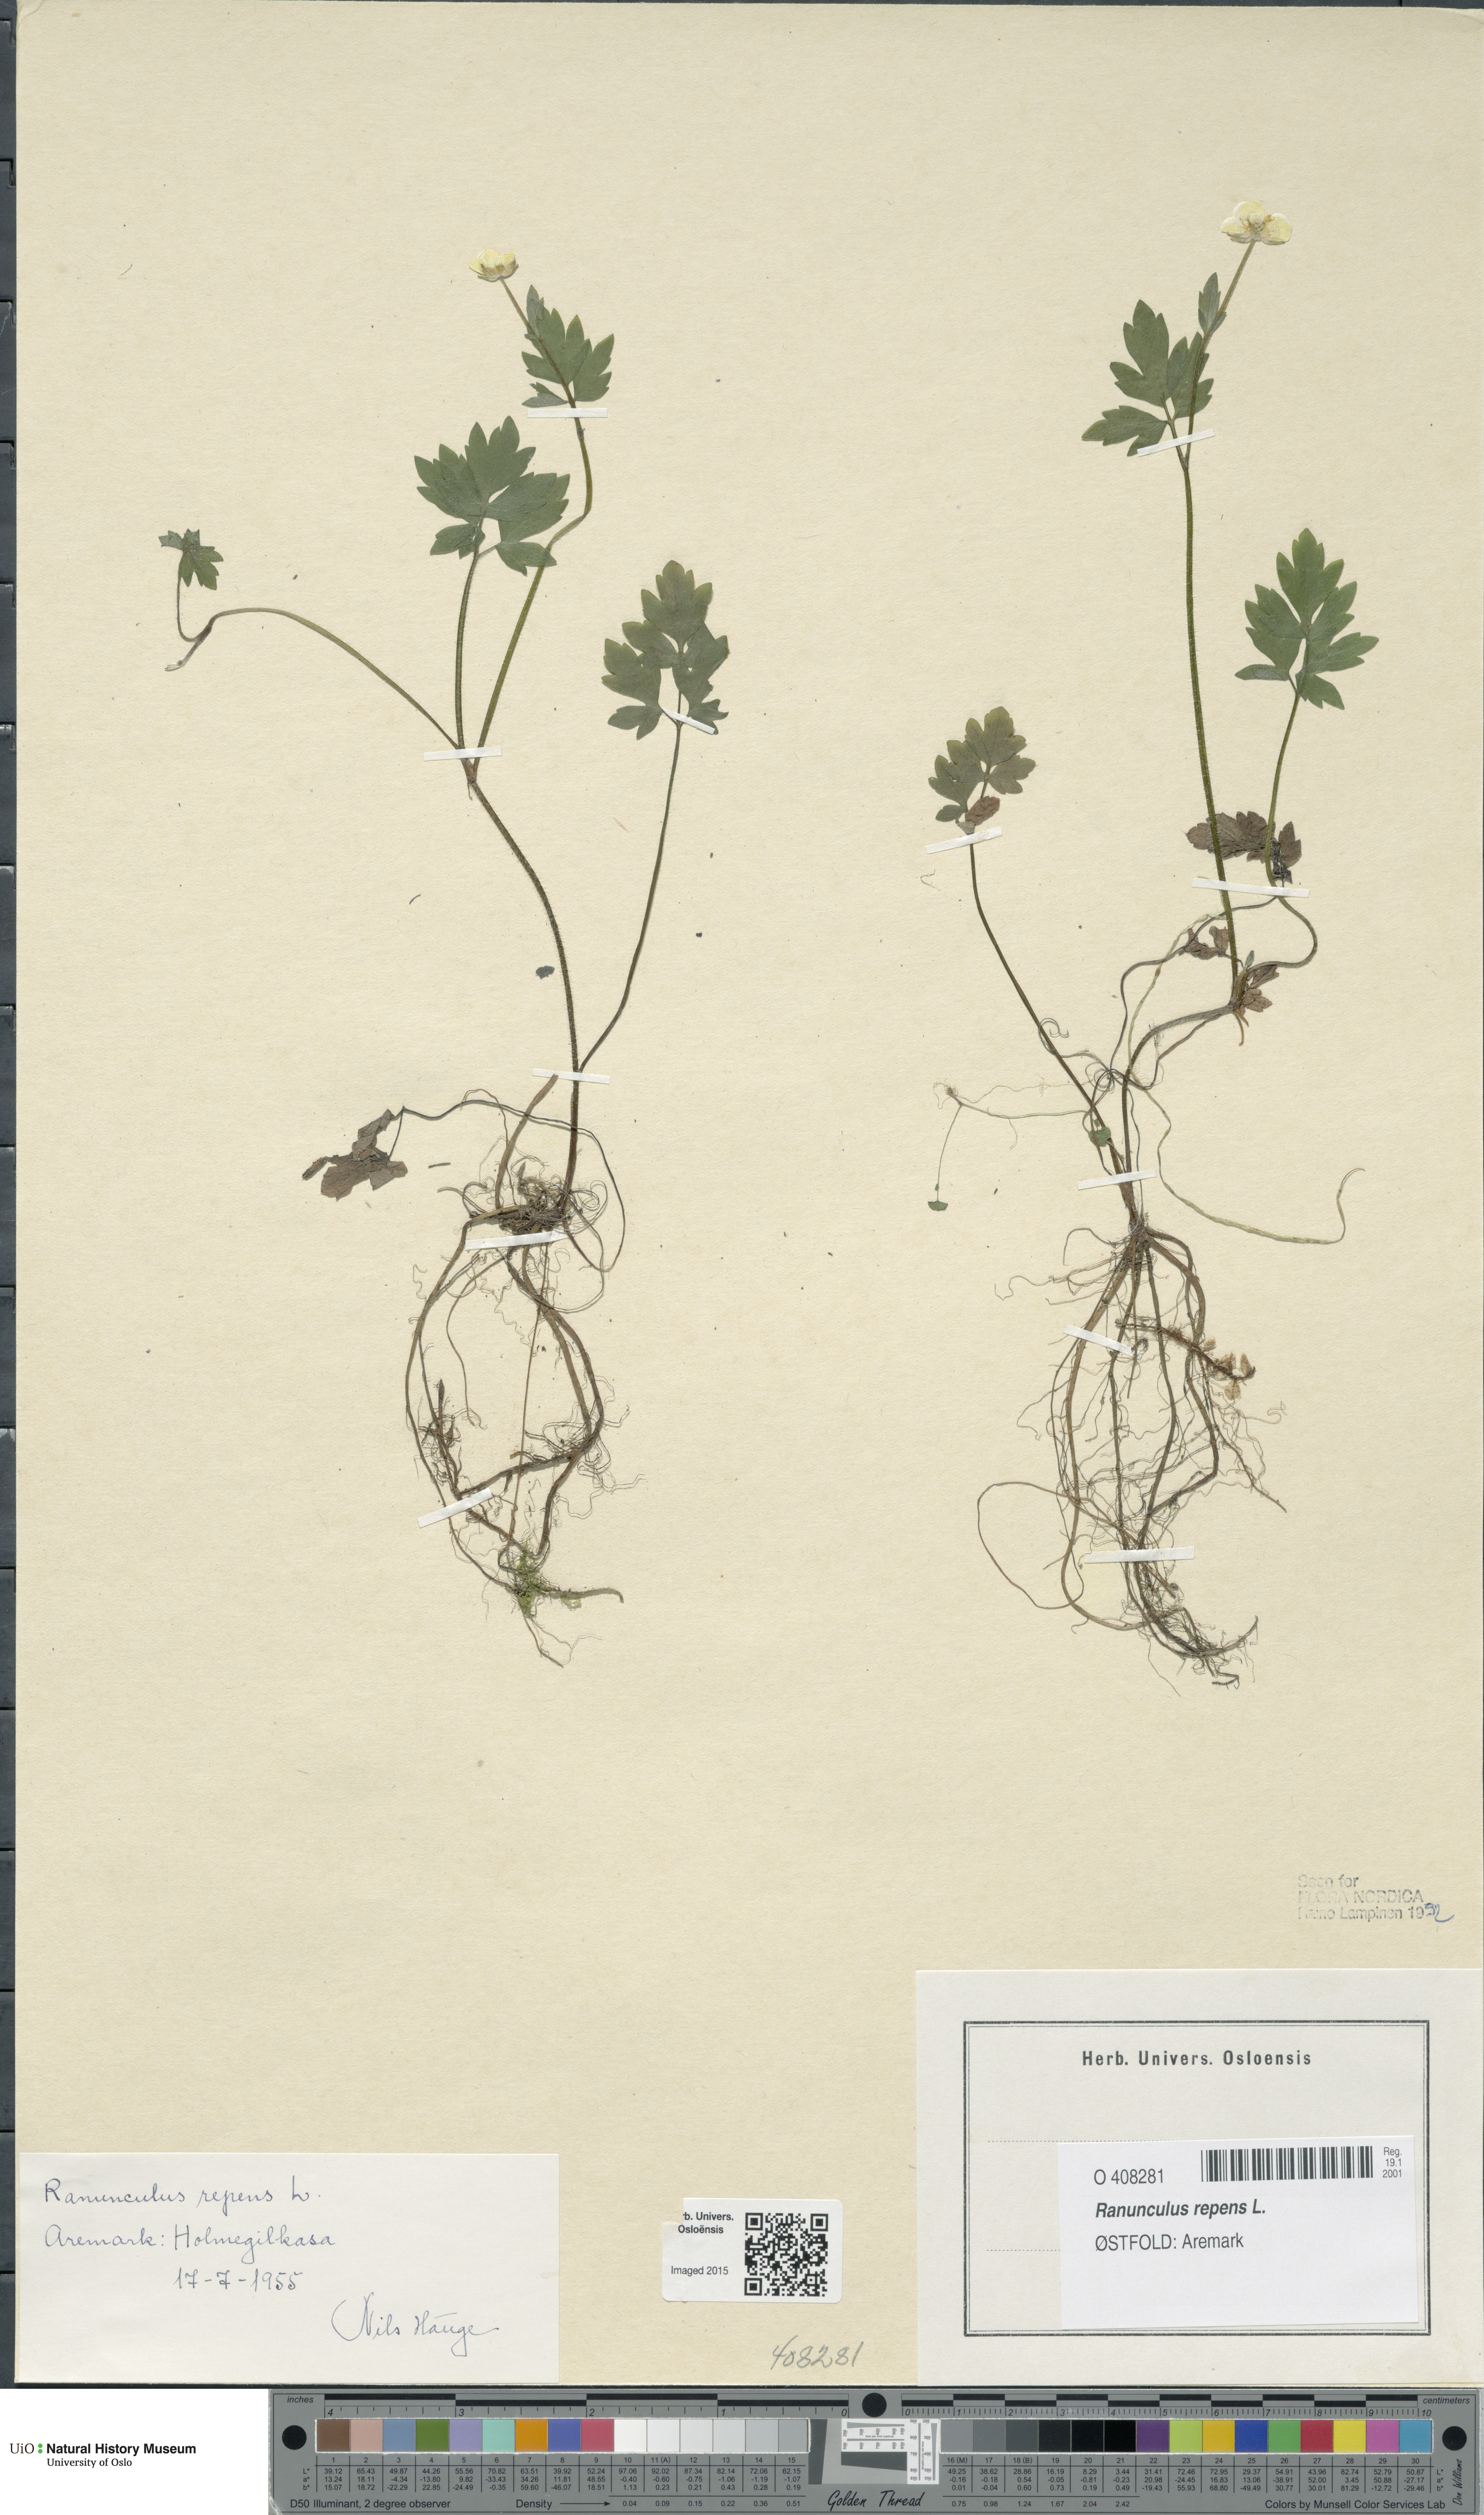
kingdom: Plantae
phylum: Tracheophyta
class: Magnoliopsida
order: Ranunculales
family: Ranunculaceae
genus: Ranunculus
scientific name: Ranunculus repens
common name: Creeping buttercup
